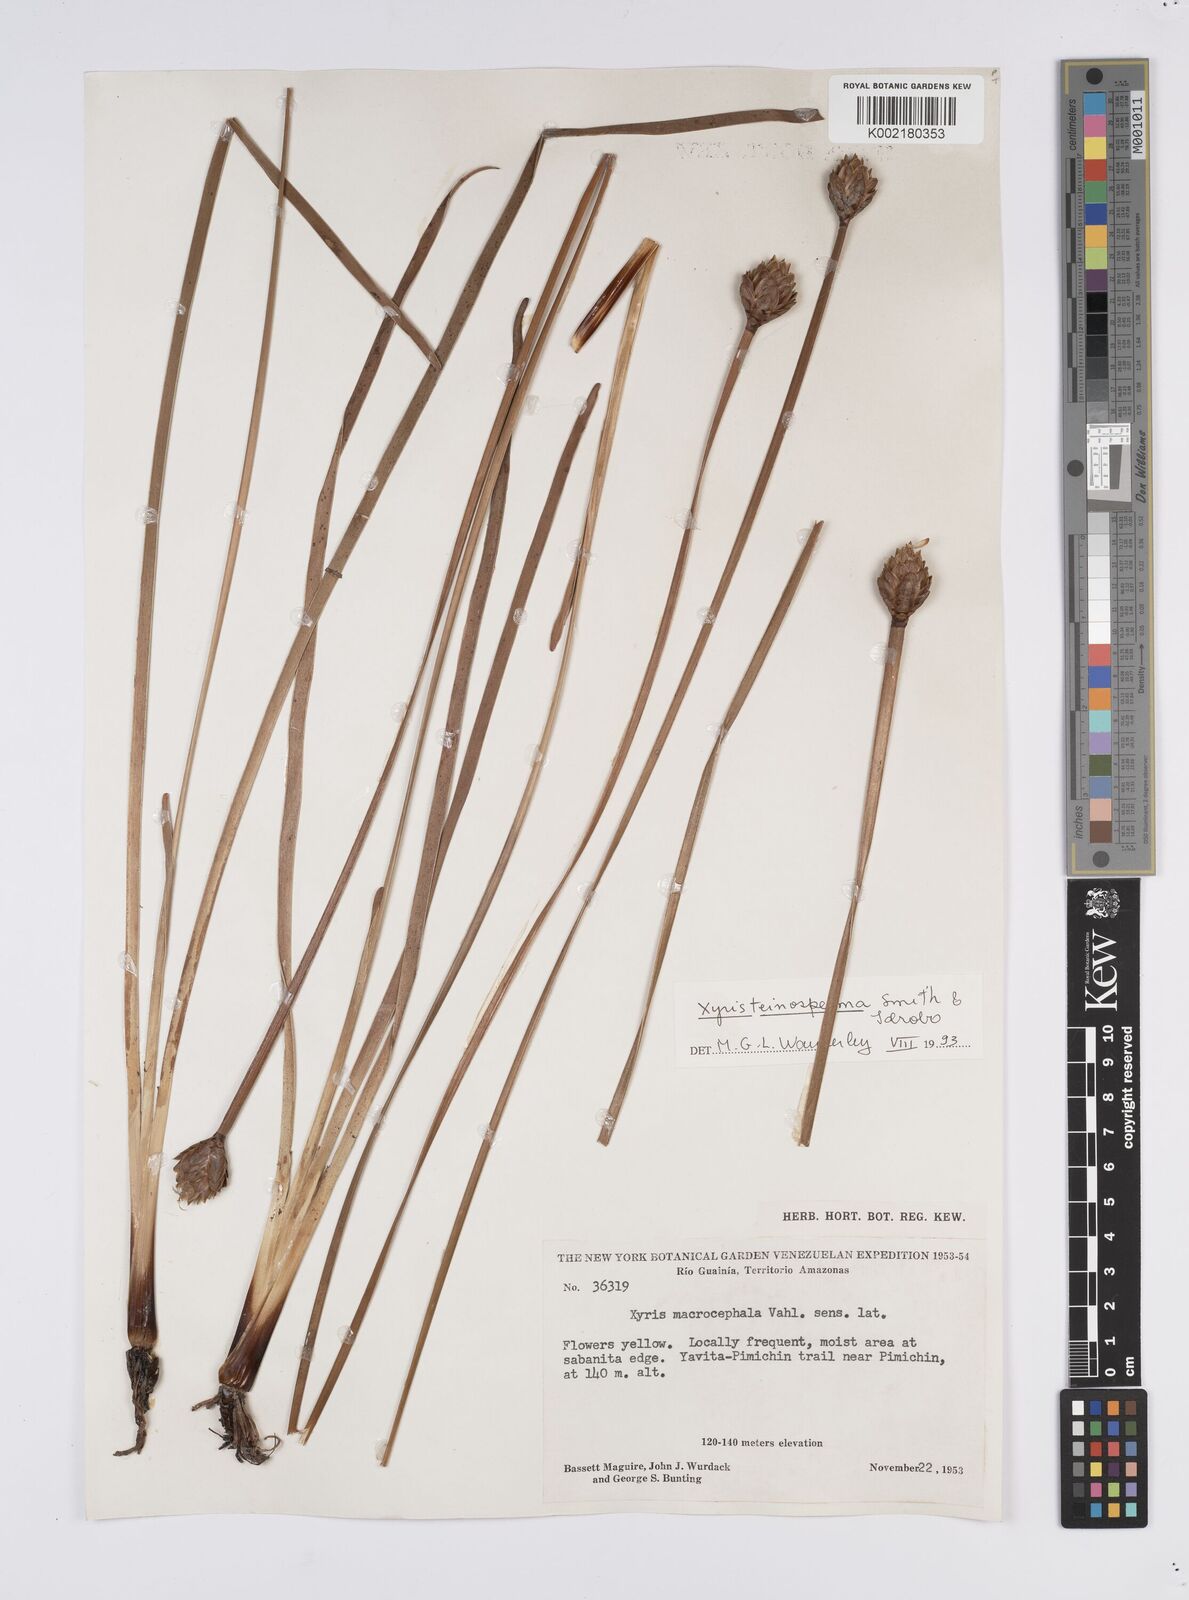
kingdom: Plantae
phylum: Tracheophyta
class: Liliopsida
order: Poales
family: Xyridaceae
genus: Xyris
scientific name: Xyris teinosperma
